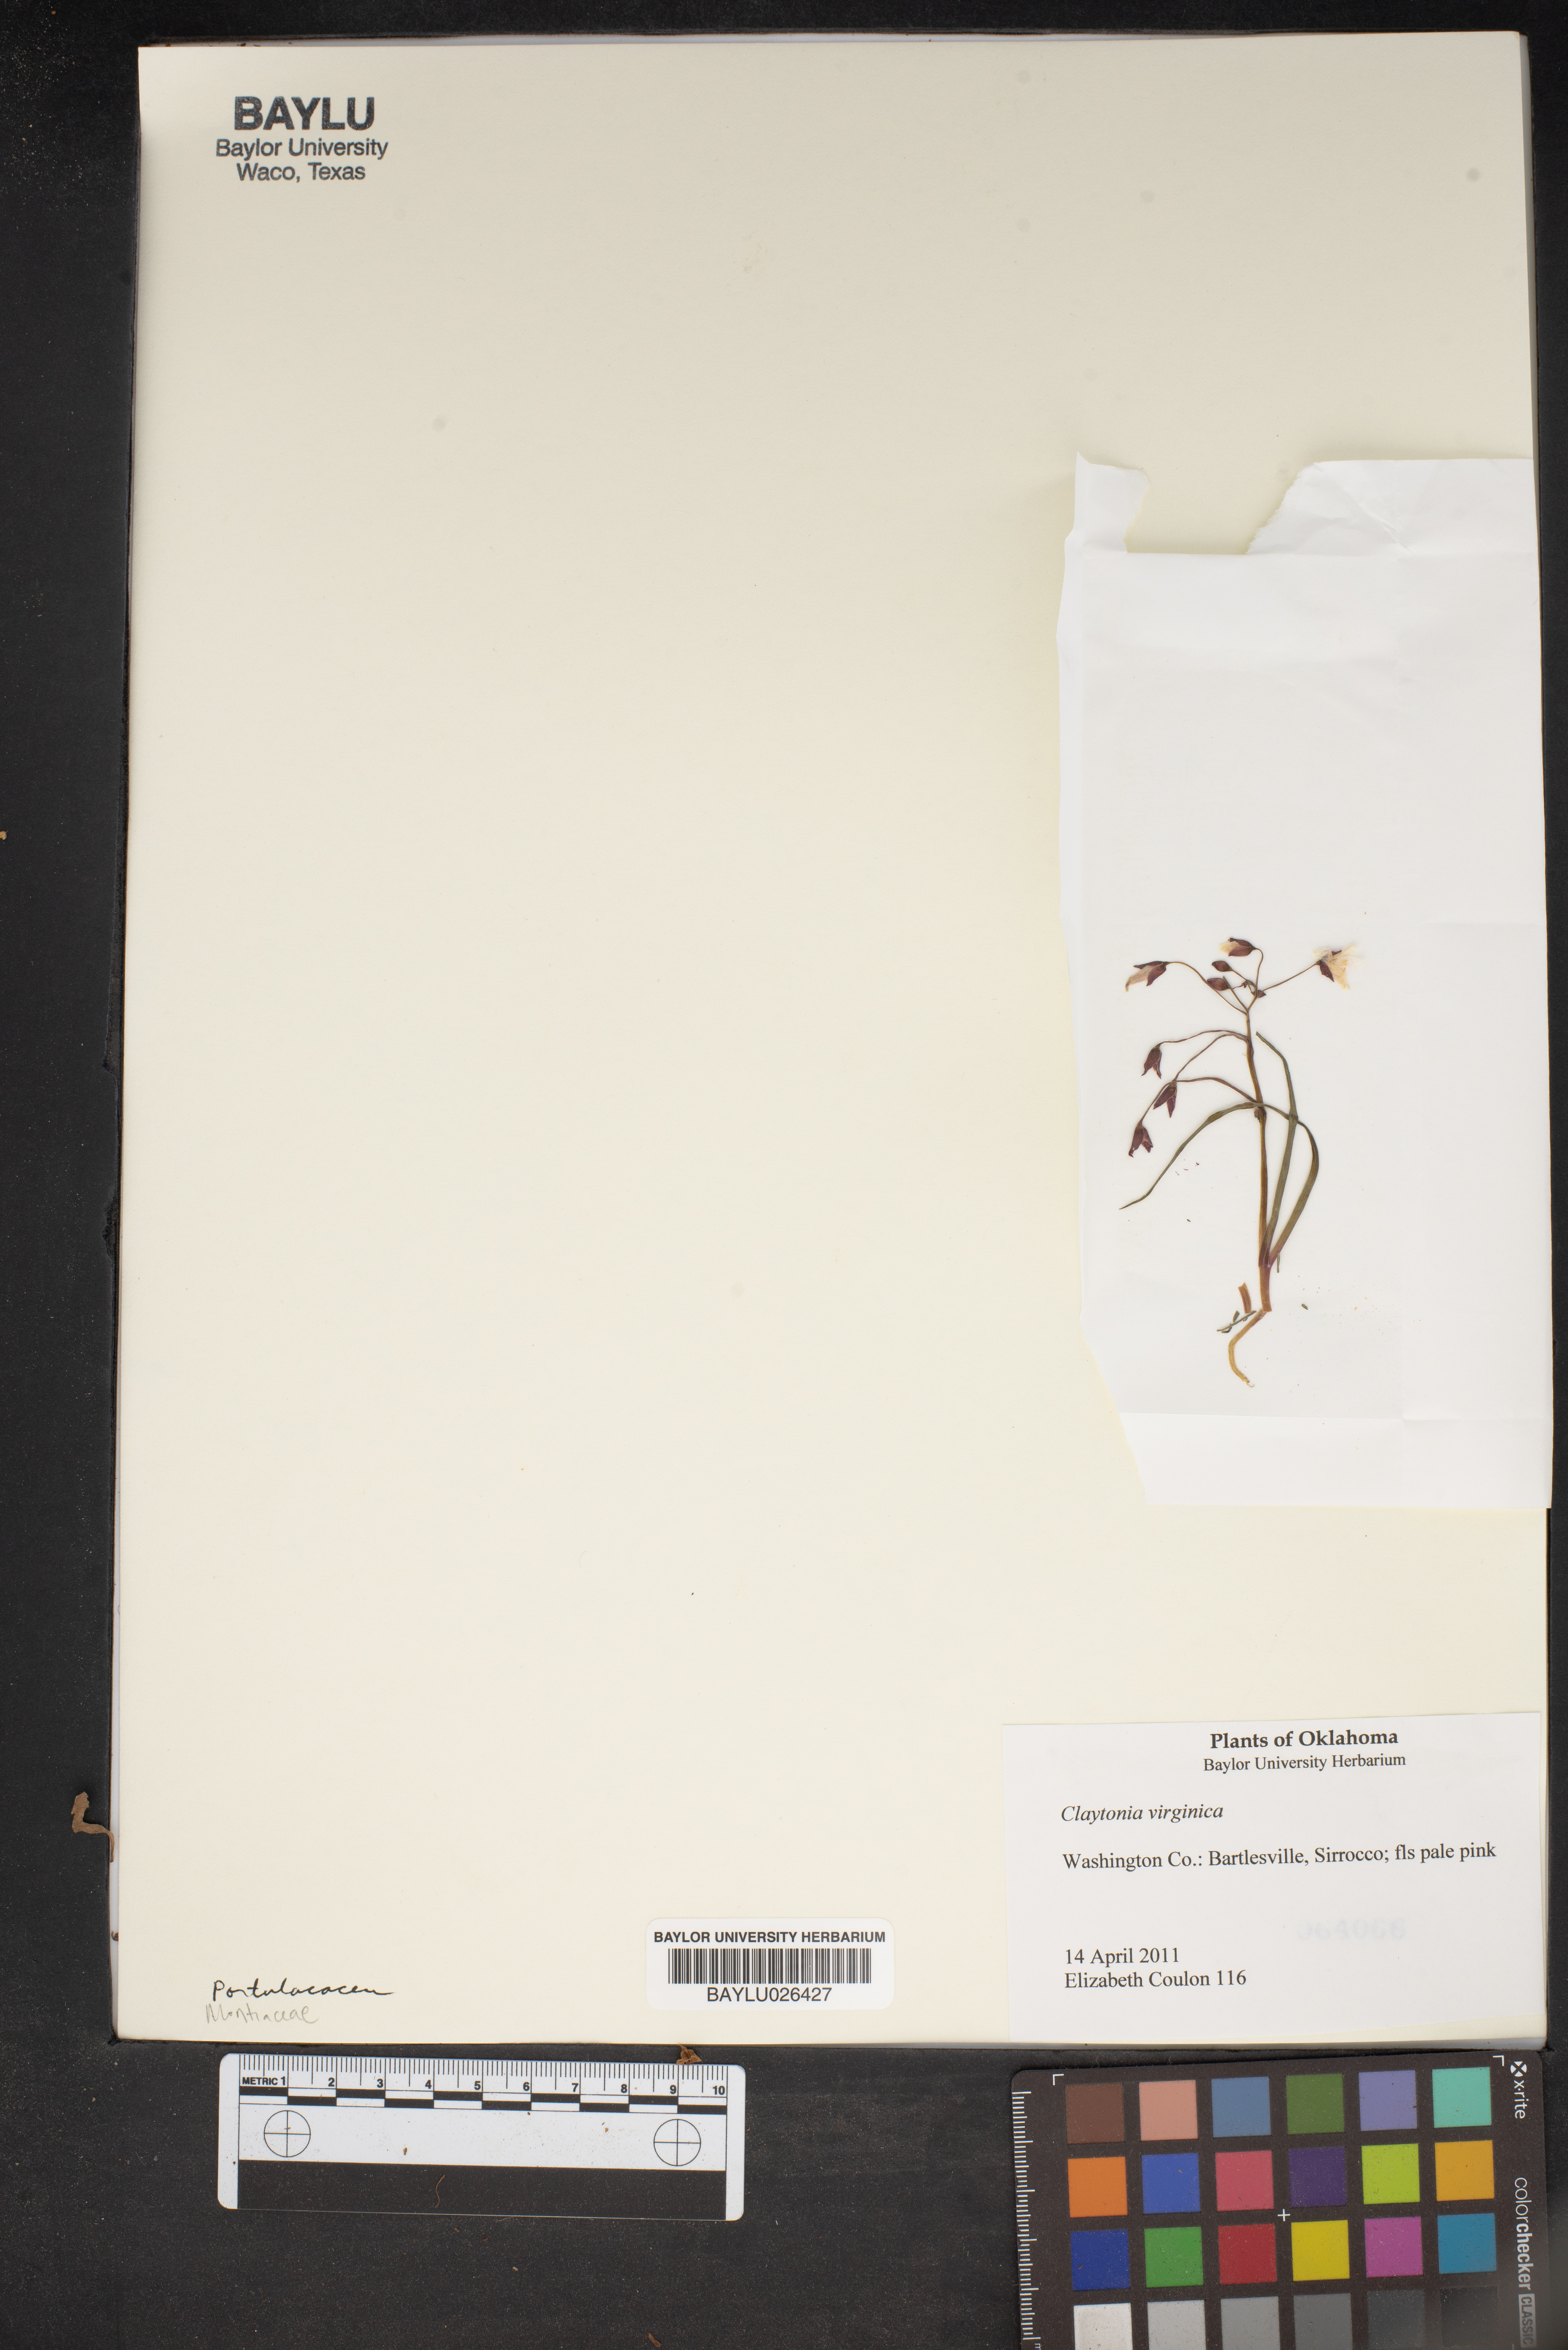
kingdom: Plantae
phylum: Tracheophyta
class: Magnoliopsida
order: Caryophyllales
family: Montiaceae
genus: Claytonia
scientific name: Claytonia virginica
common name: Virginia springbeauty
